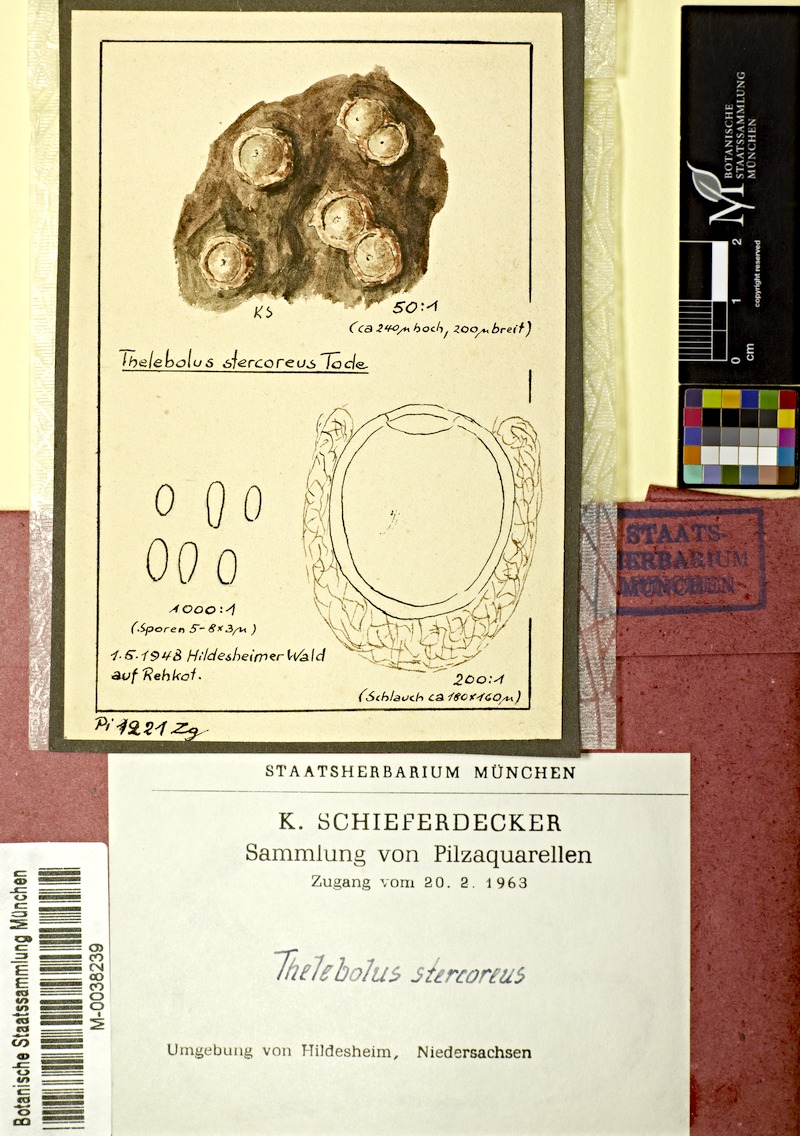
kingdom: Fungi
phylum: Ascomycota
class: Leotiomycetes
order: Thelebolales
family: Thelebolaceae
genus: Thelebolus
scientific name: Thelebolus stercoreus
